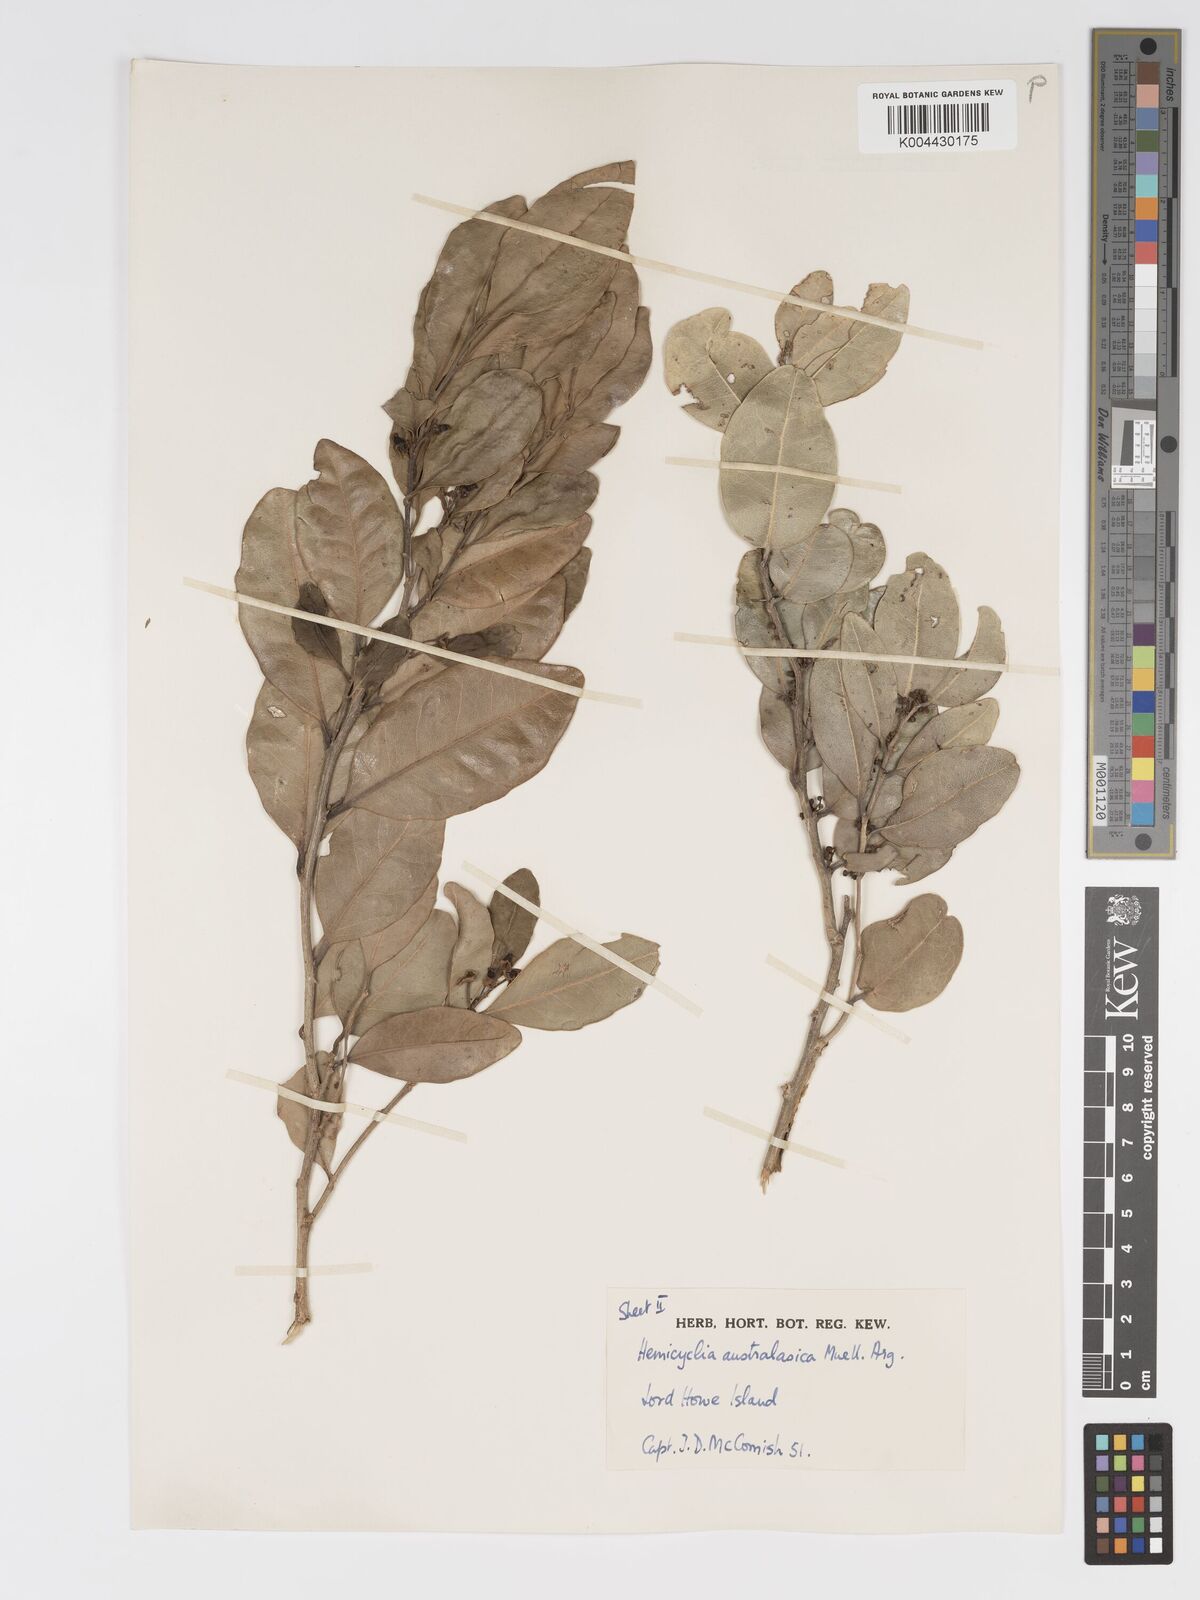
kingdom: Plantae
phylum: Tracheophyta
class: Magnoliopsida
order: Malpighiales
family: Putranjivaceae
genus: Drypetes
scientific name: Drypetes deplanchei
